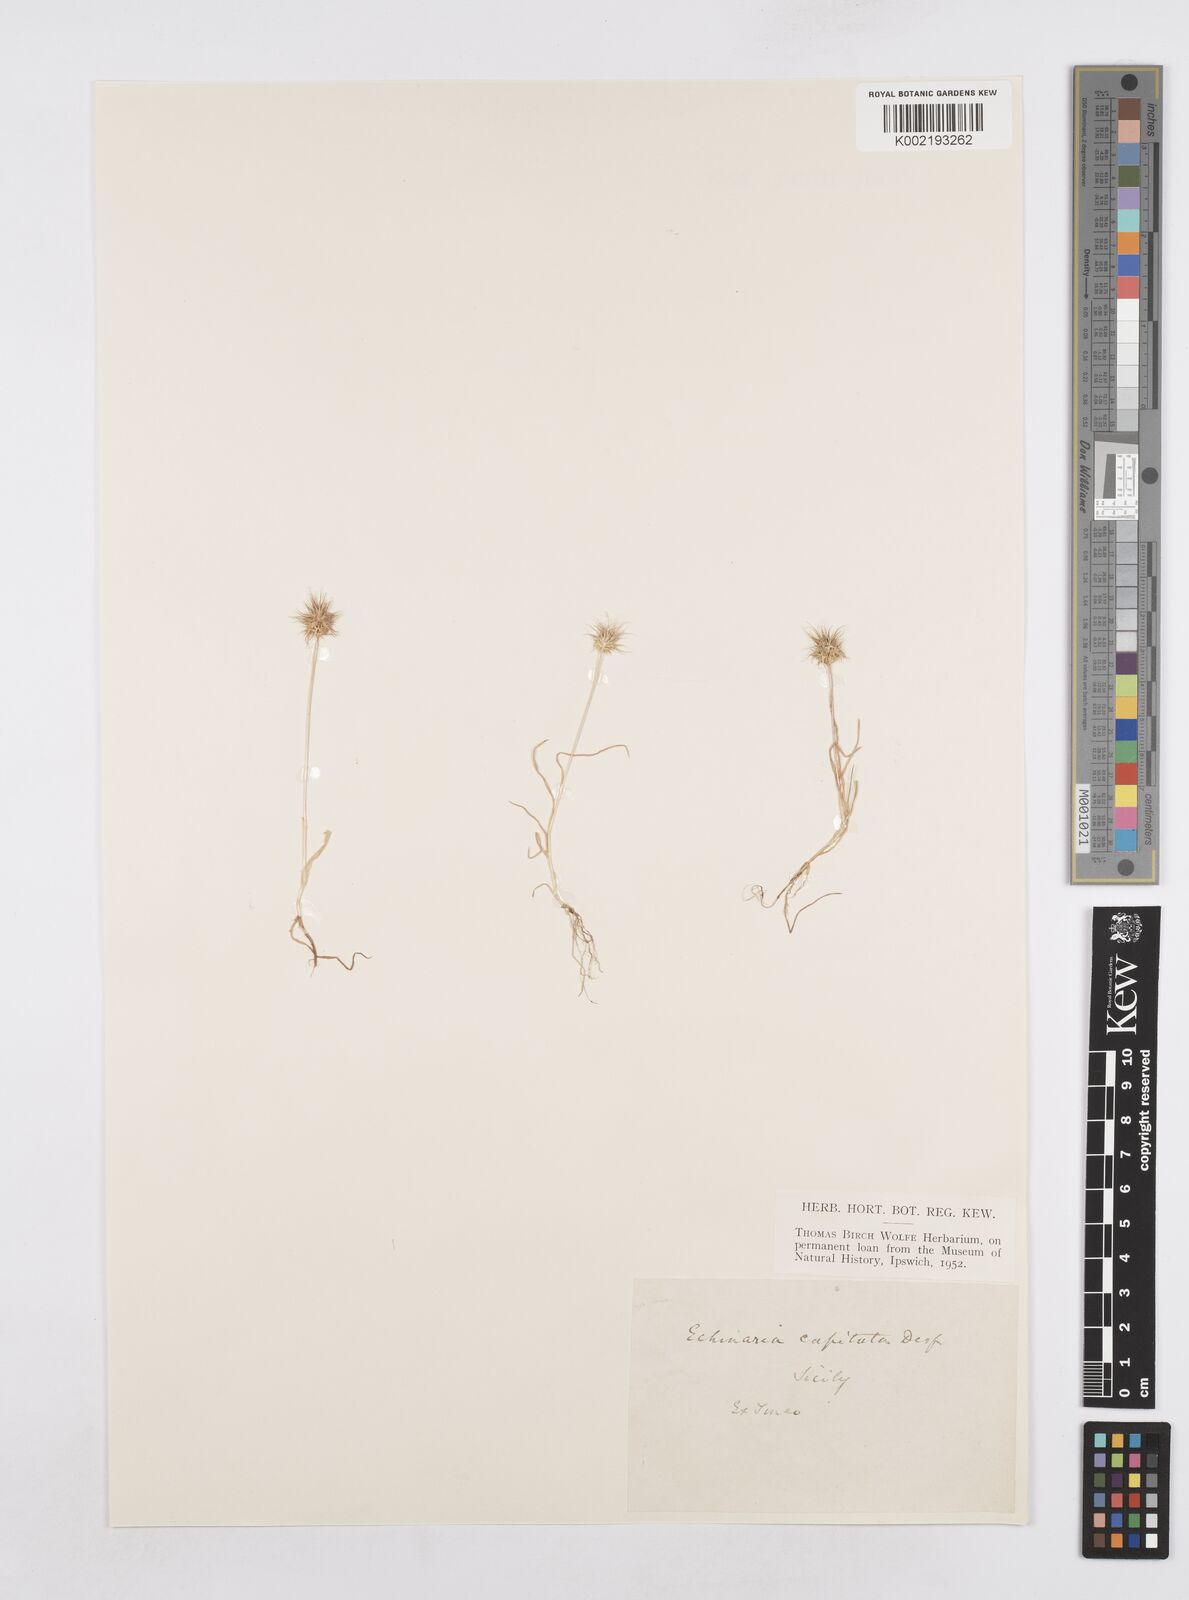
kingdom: Plantae
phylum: Tracheophyta
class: Liliopsida
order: Poales
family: Poaceae
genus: Echinaria
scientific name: Echinaria capitata
